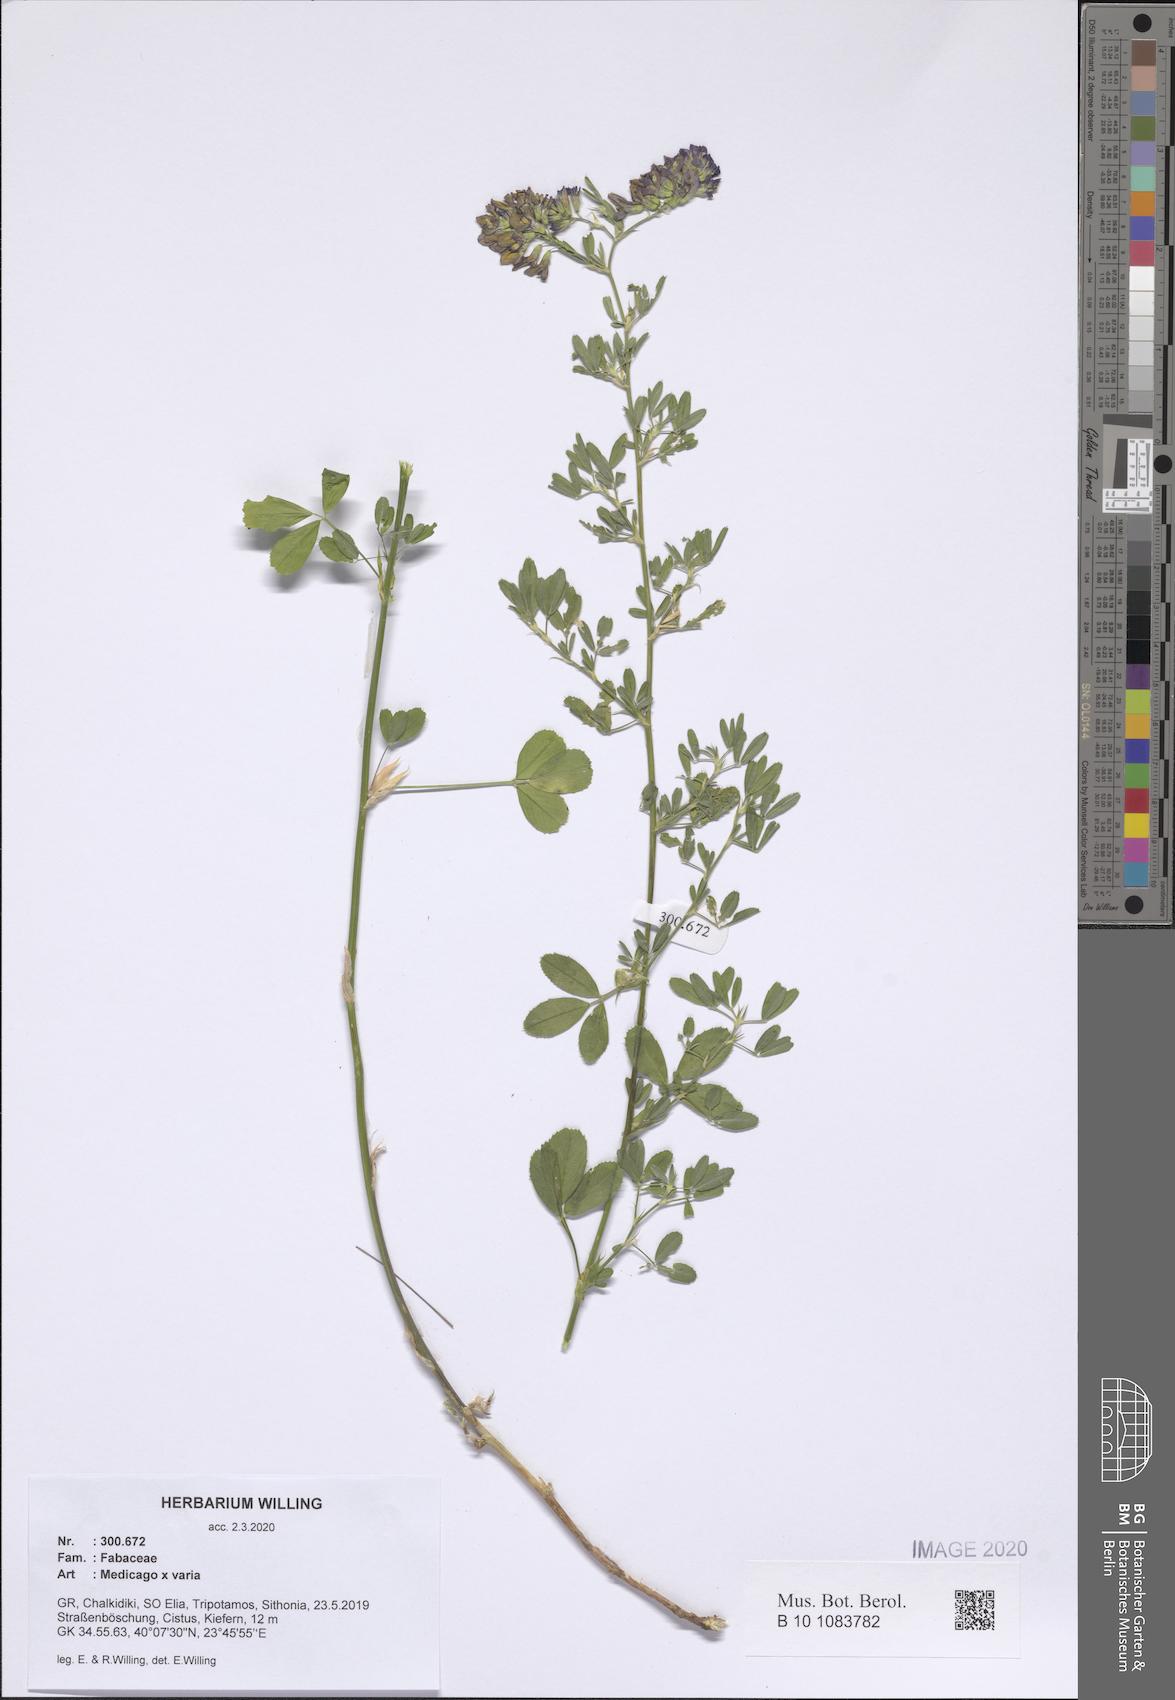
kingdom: Plantae
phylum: Tracheophyta
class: Magnoliopsida
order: Fabales
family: Fabaceae
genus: Medicago
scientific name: Medicago varia
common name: Sand lucerne
